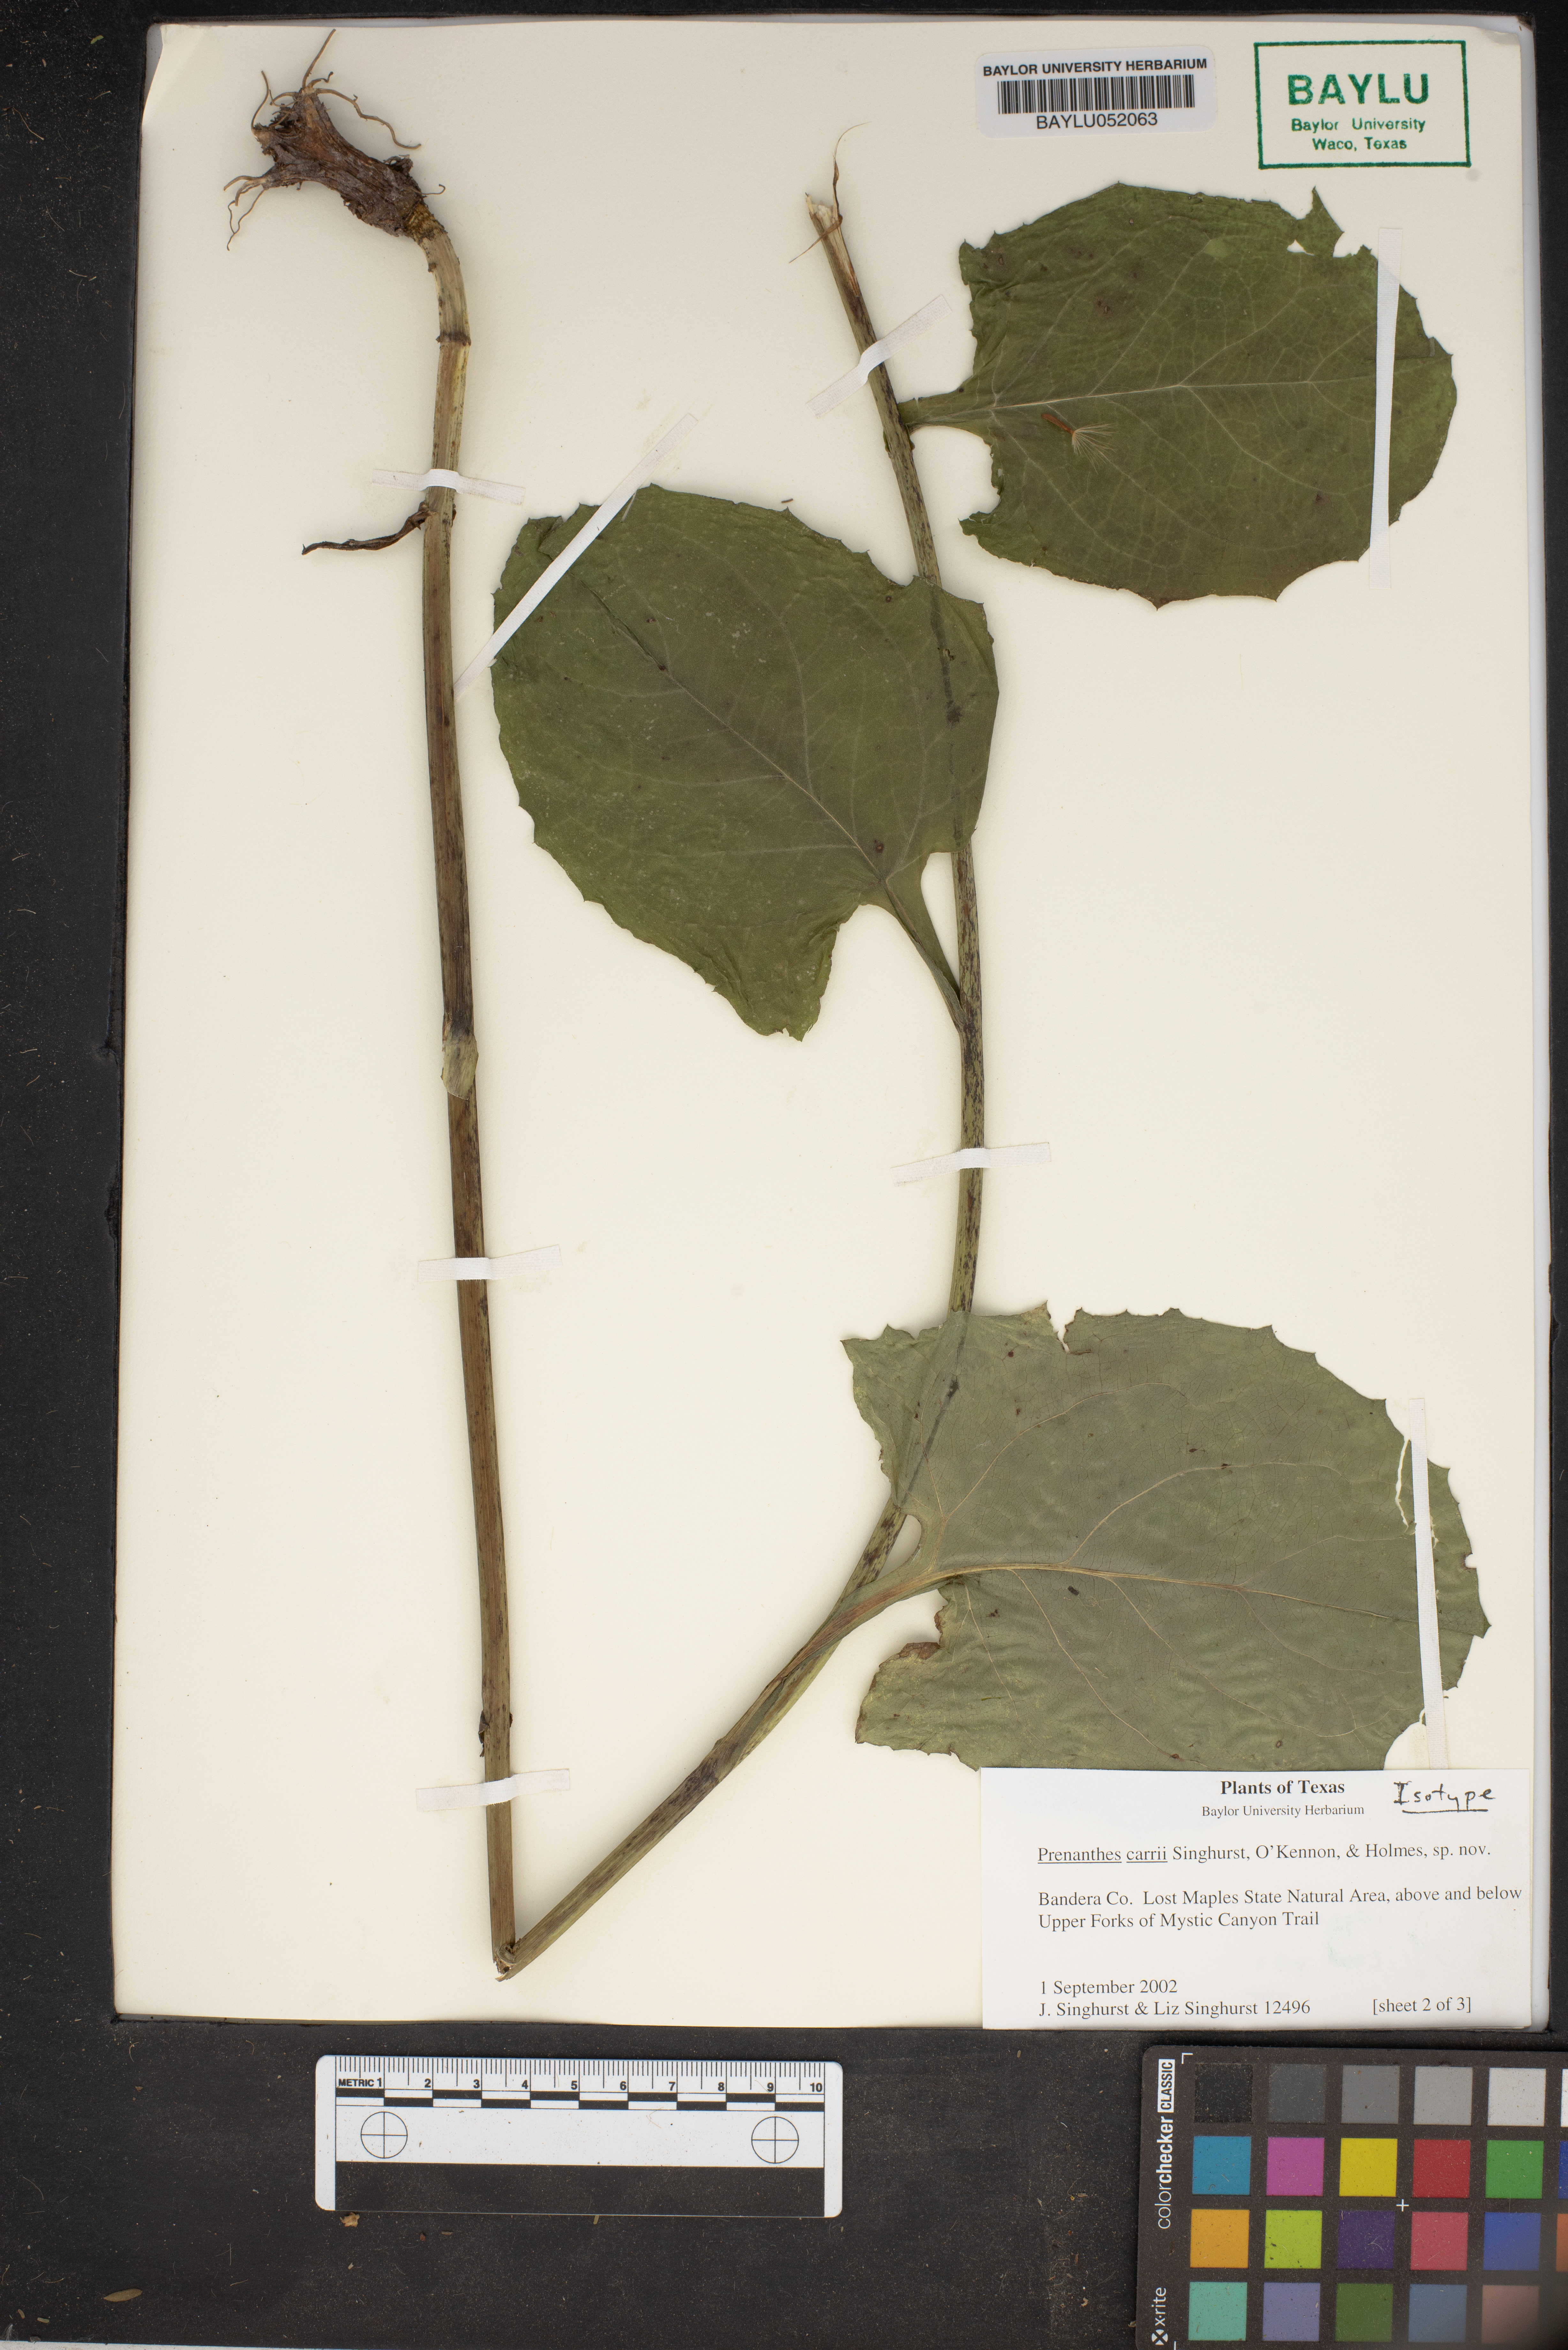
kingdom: Plantae
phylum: Tracheophyta
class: Magnoliopsida
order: Asterales
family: Asteraceae
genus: Nabalus
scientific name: Nabalus carrii
